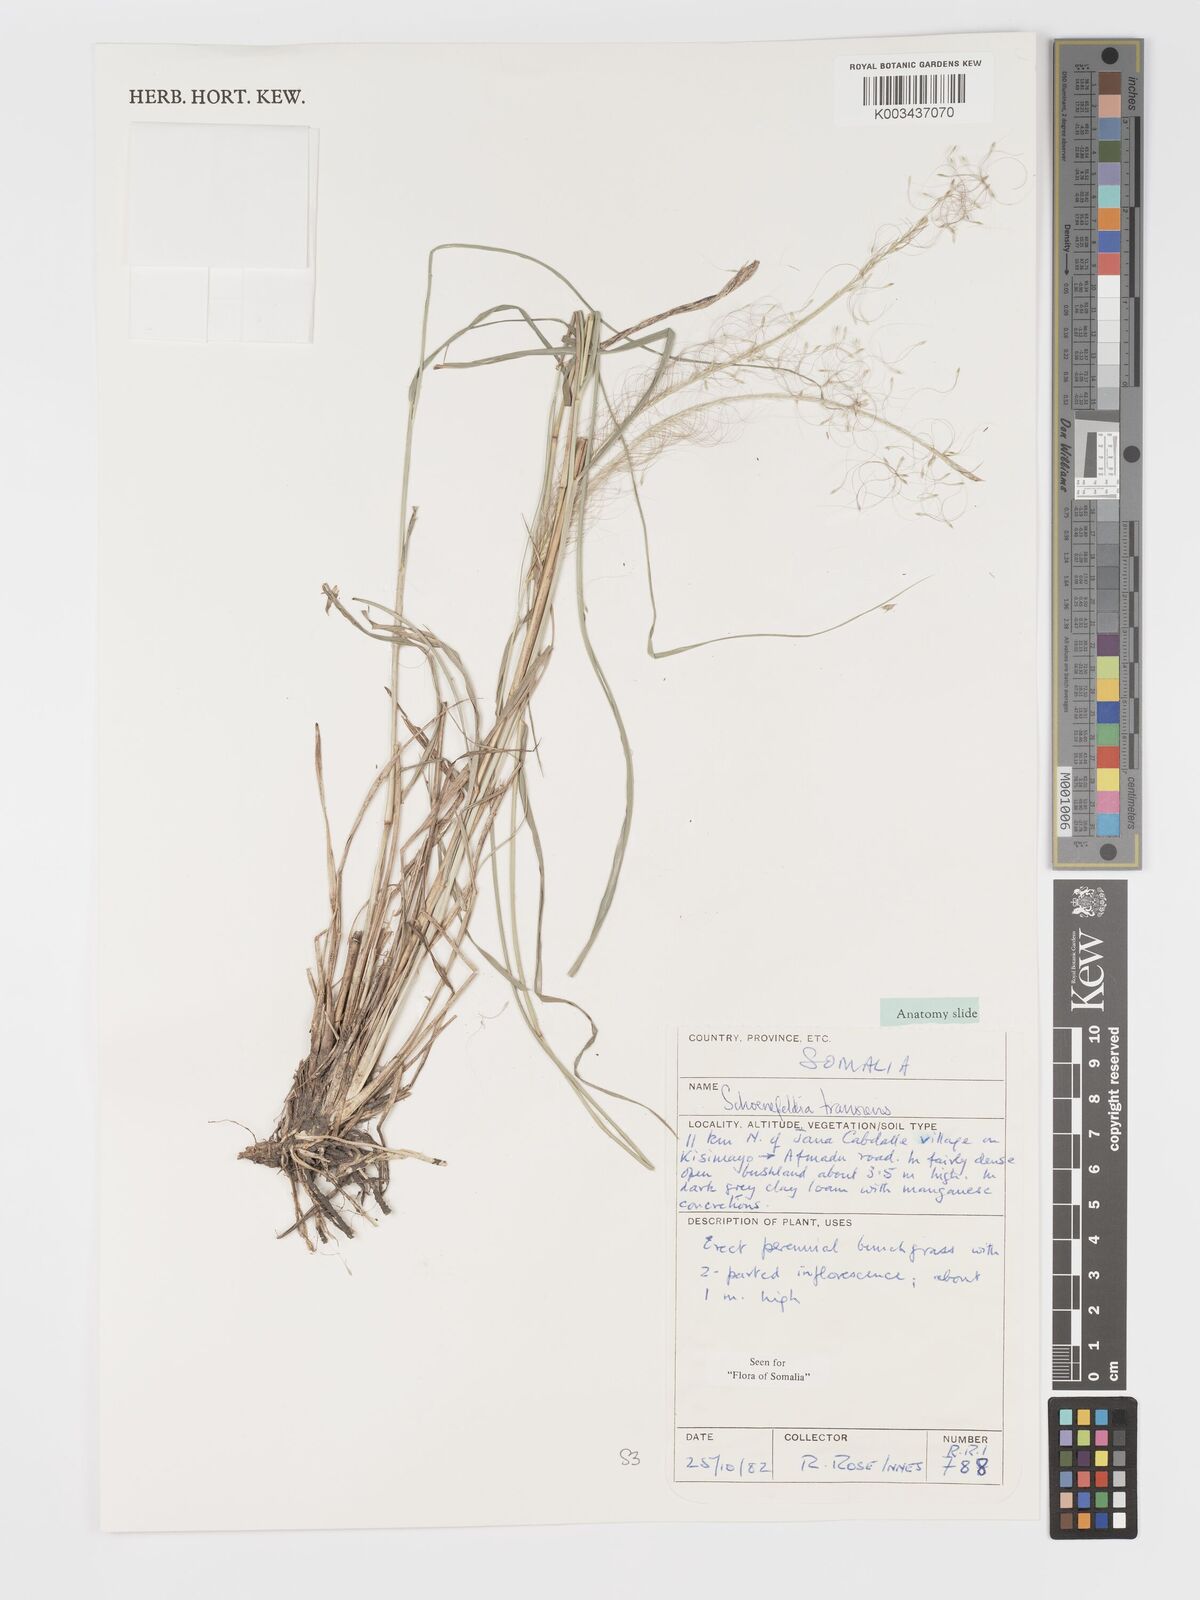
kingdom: Plantae
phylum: Tracheophyta
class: Liliopsida
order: Poales
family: Poaceae
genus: Schoenefeldia
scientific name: Schoenefeldia transiens
